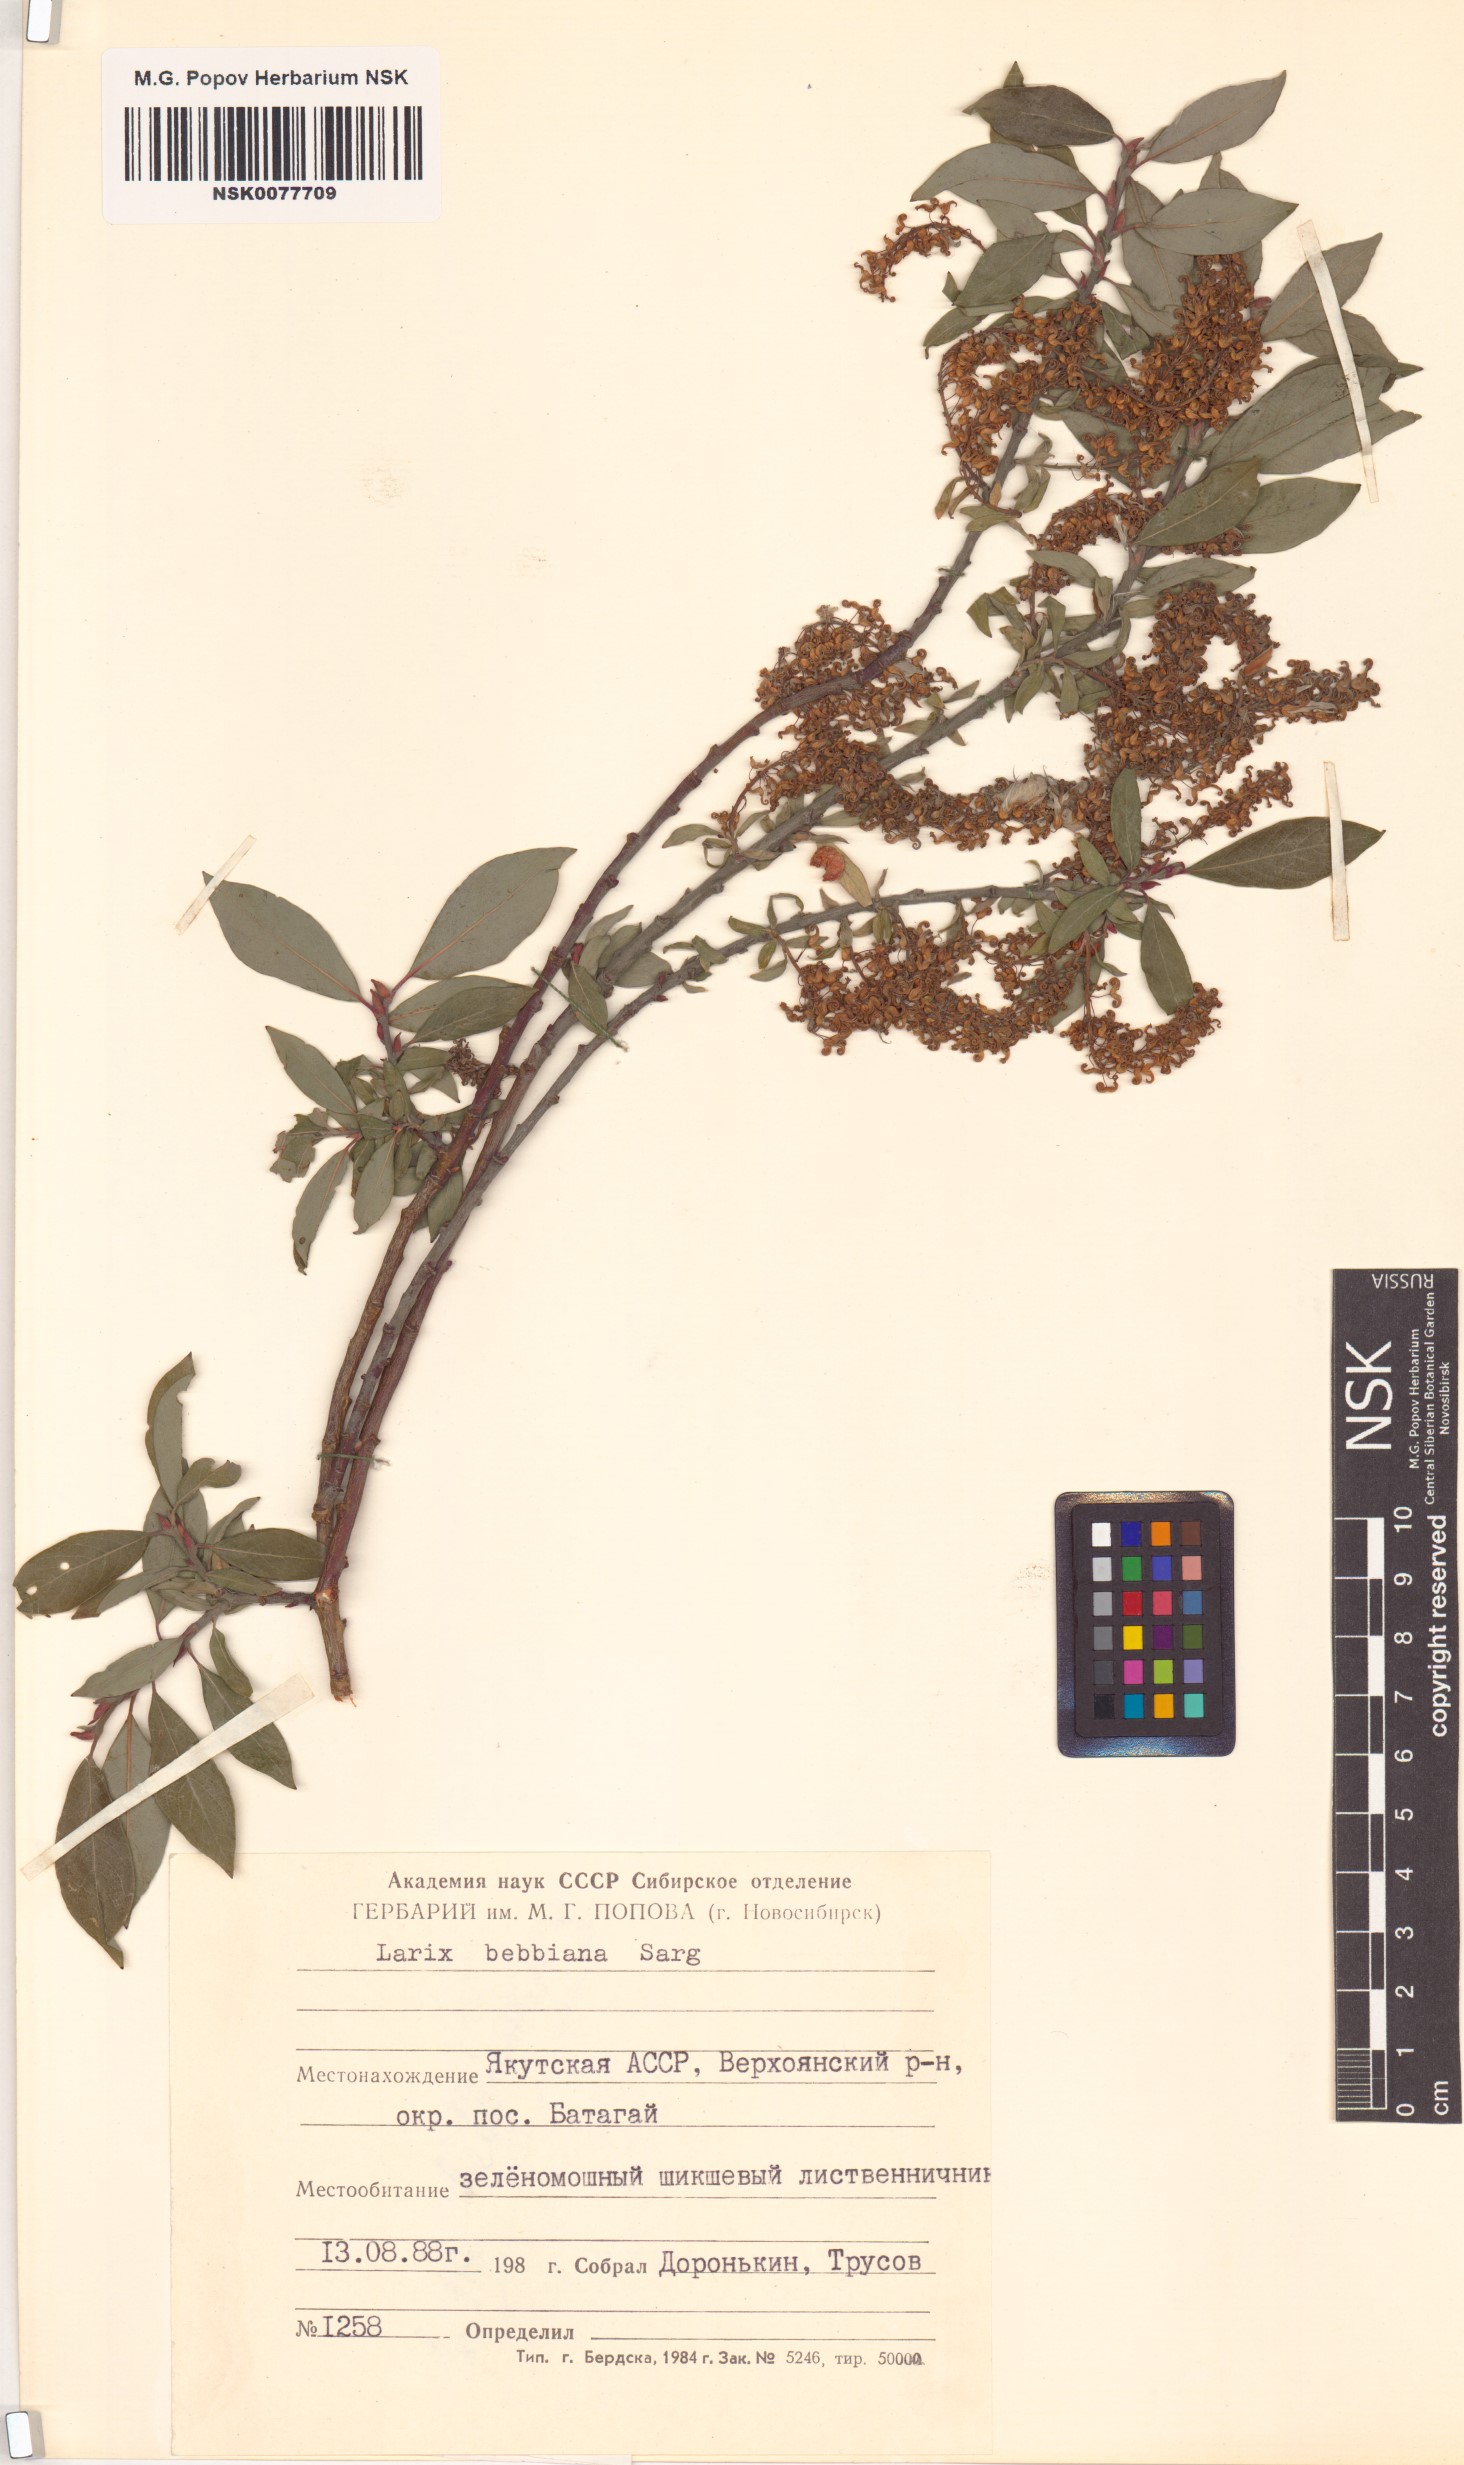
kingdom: Plantae
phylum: Tracheophyta
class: Magnoliopsida
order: Malpighiales
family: Salicaceae
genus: Salix
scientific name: Salix bebbiana
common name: Bebb's willow
